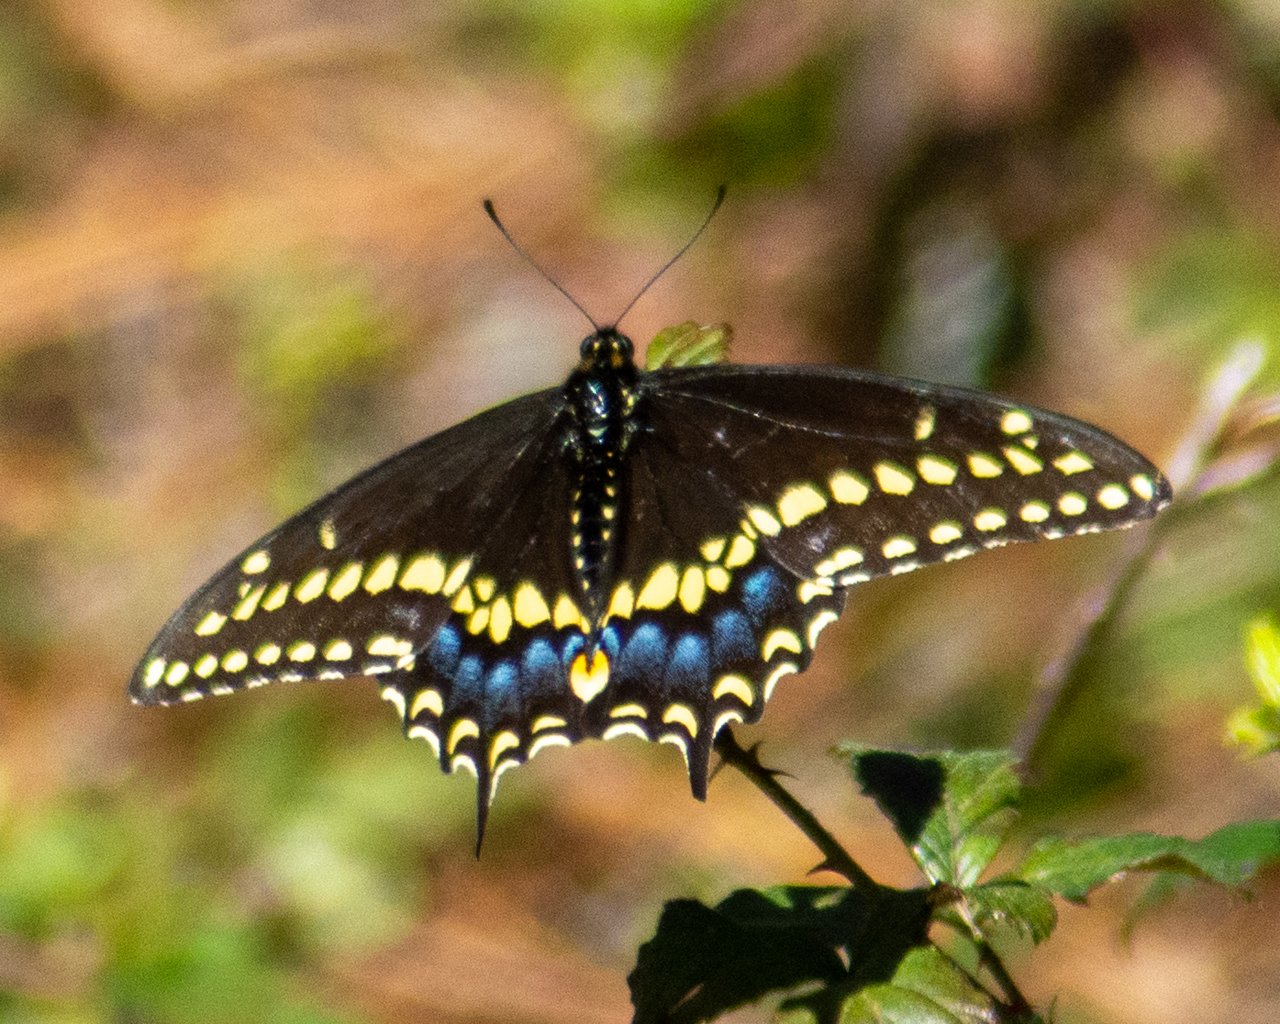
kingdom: Animalia
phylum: Arthropoda
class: Insecta
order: Lepidoptera
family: Papilionidae
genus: Papilio
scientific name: Papilio polyxenes
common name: Black Swallowtail
